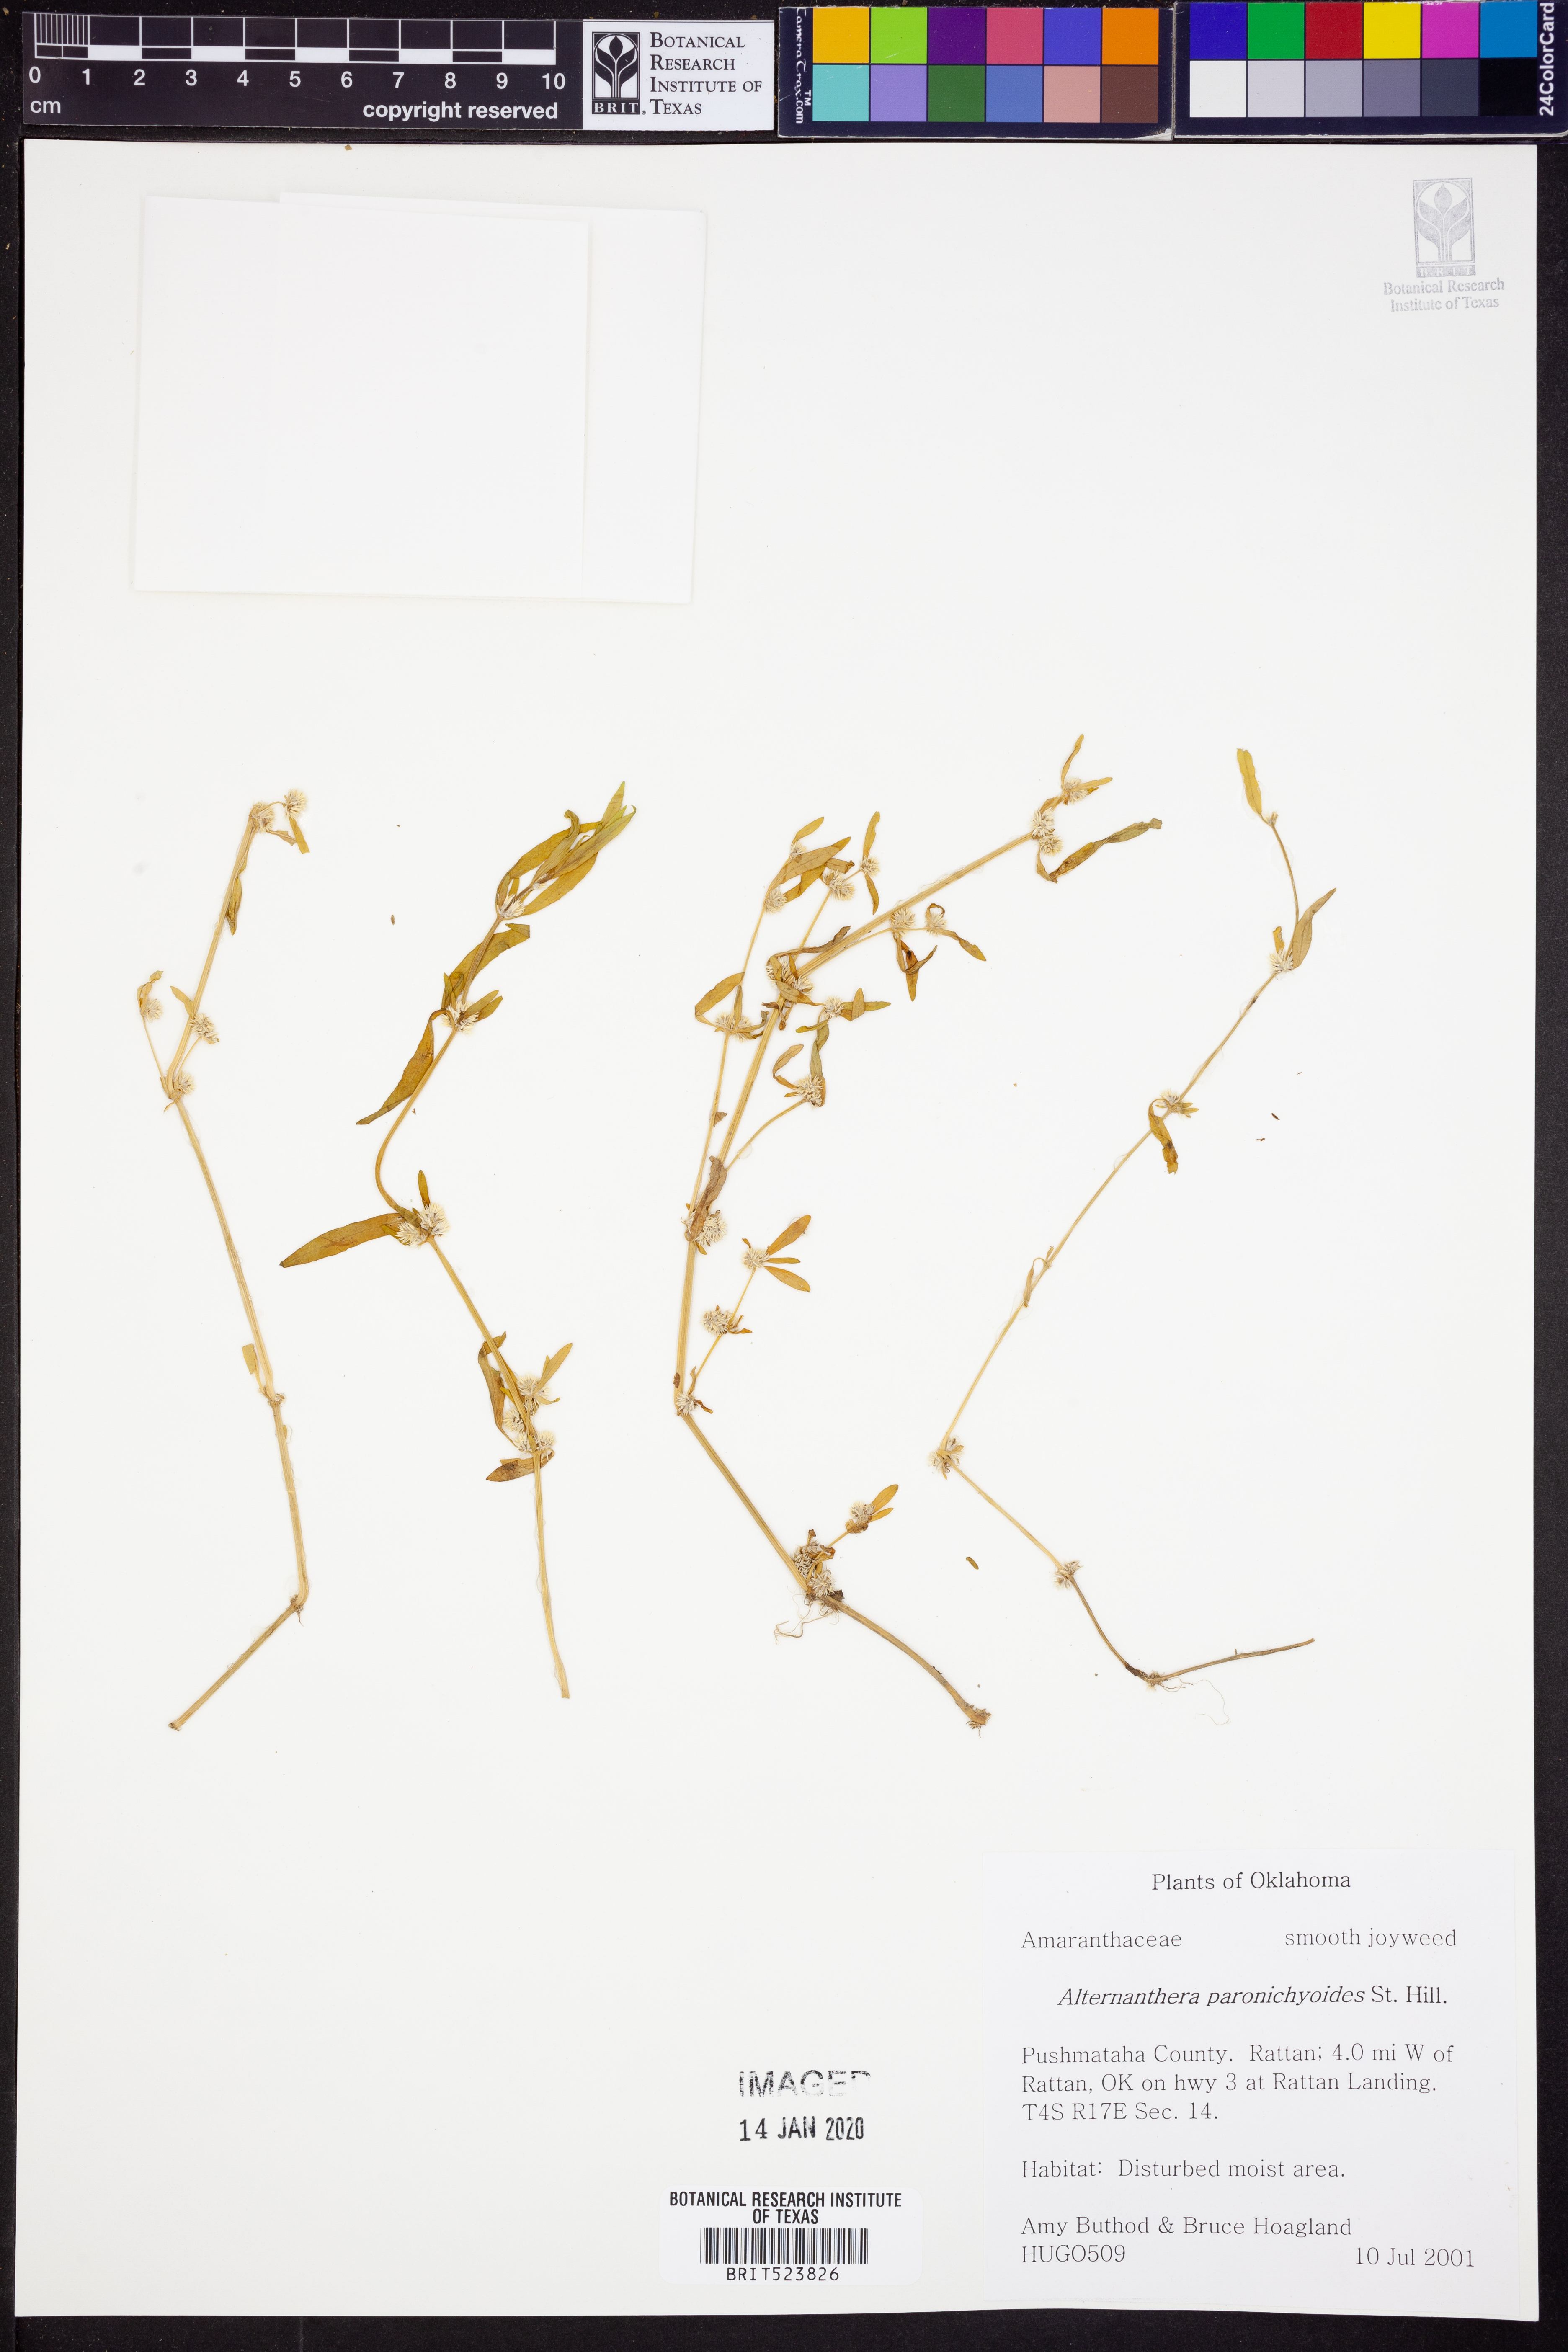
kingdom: Plantae
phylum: Tracheophyta
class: Magnoliopsida
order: Caryophyllales
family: Amaranthaceae
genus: Alternanthera
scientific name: Alternanthera paronychioides
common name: Smooth joyweed
